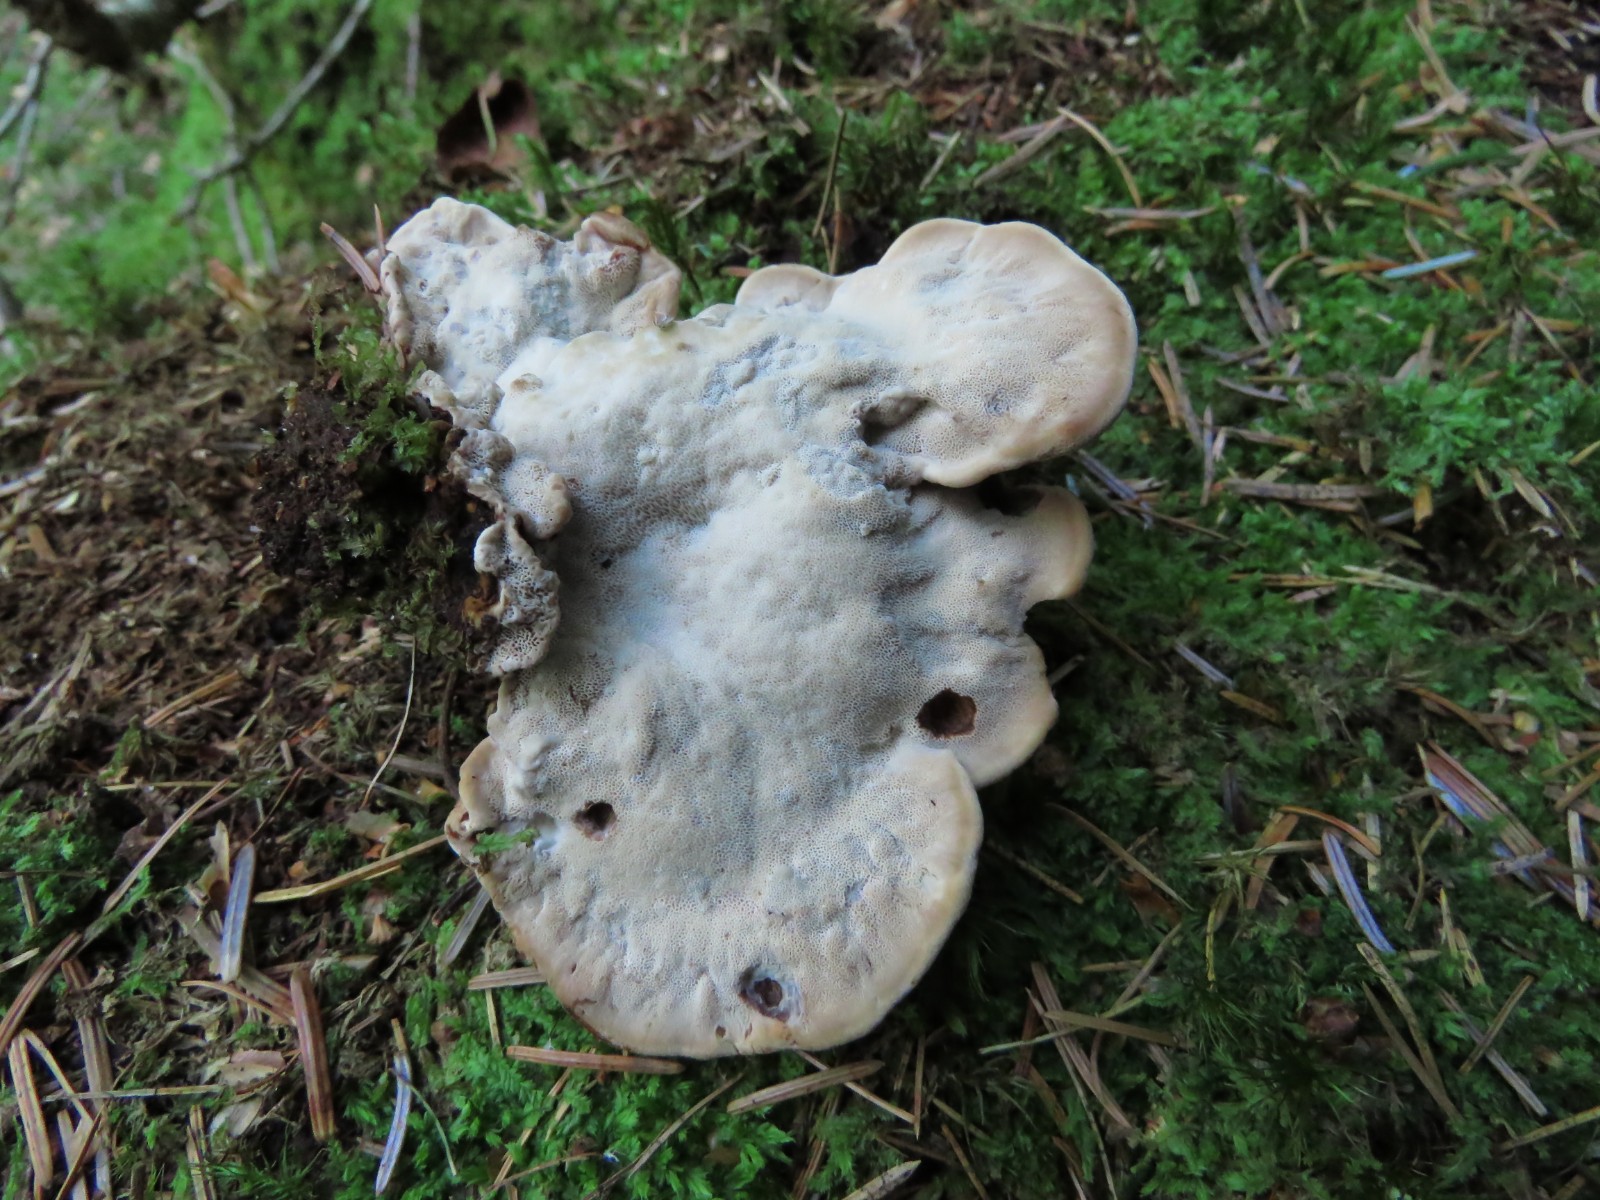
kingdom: Fungi
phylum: Basidiomycota
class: Agaricomycetes
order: Polyporales
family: Ischnodermataceae
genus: Ischnoderma
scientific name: Ischnoderma benzoinum
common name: gran-tjæreporesvamp
